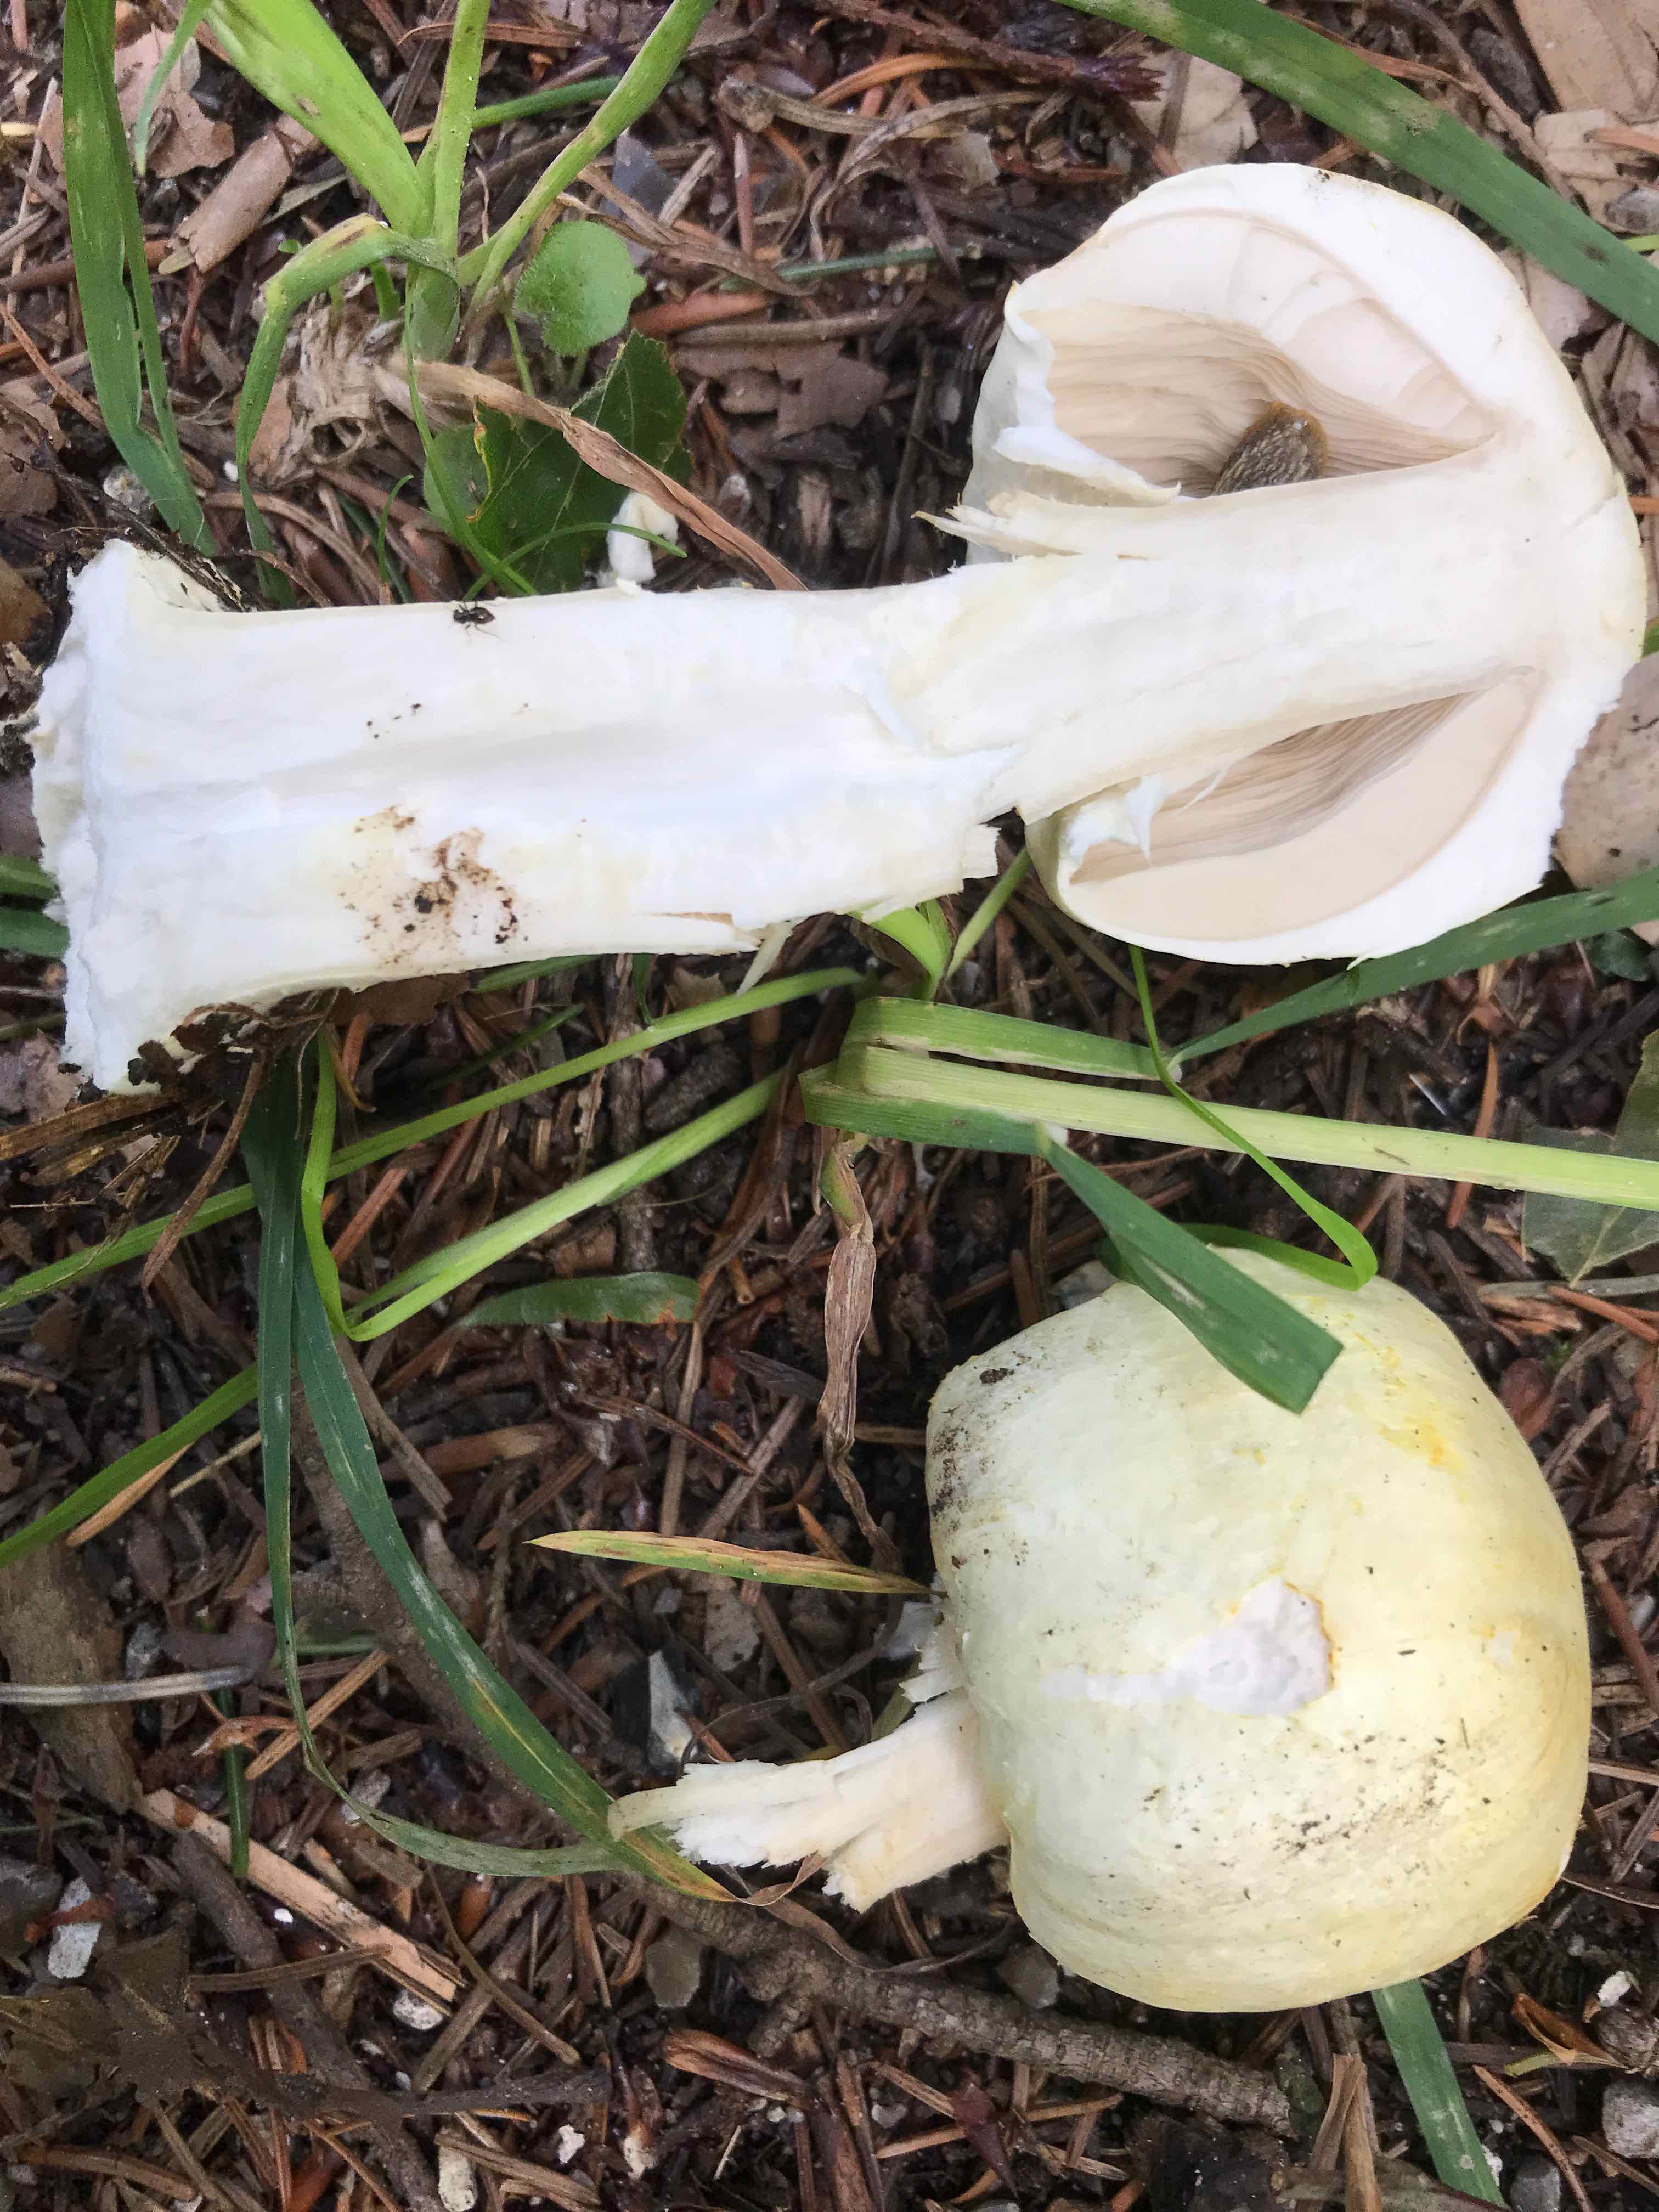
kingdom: Fungi
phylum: Basidiomycota
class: Agaricomycetes
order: Agaricales
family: Amanitaceae
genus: Amanita
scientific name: Amanita phalloides
